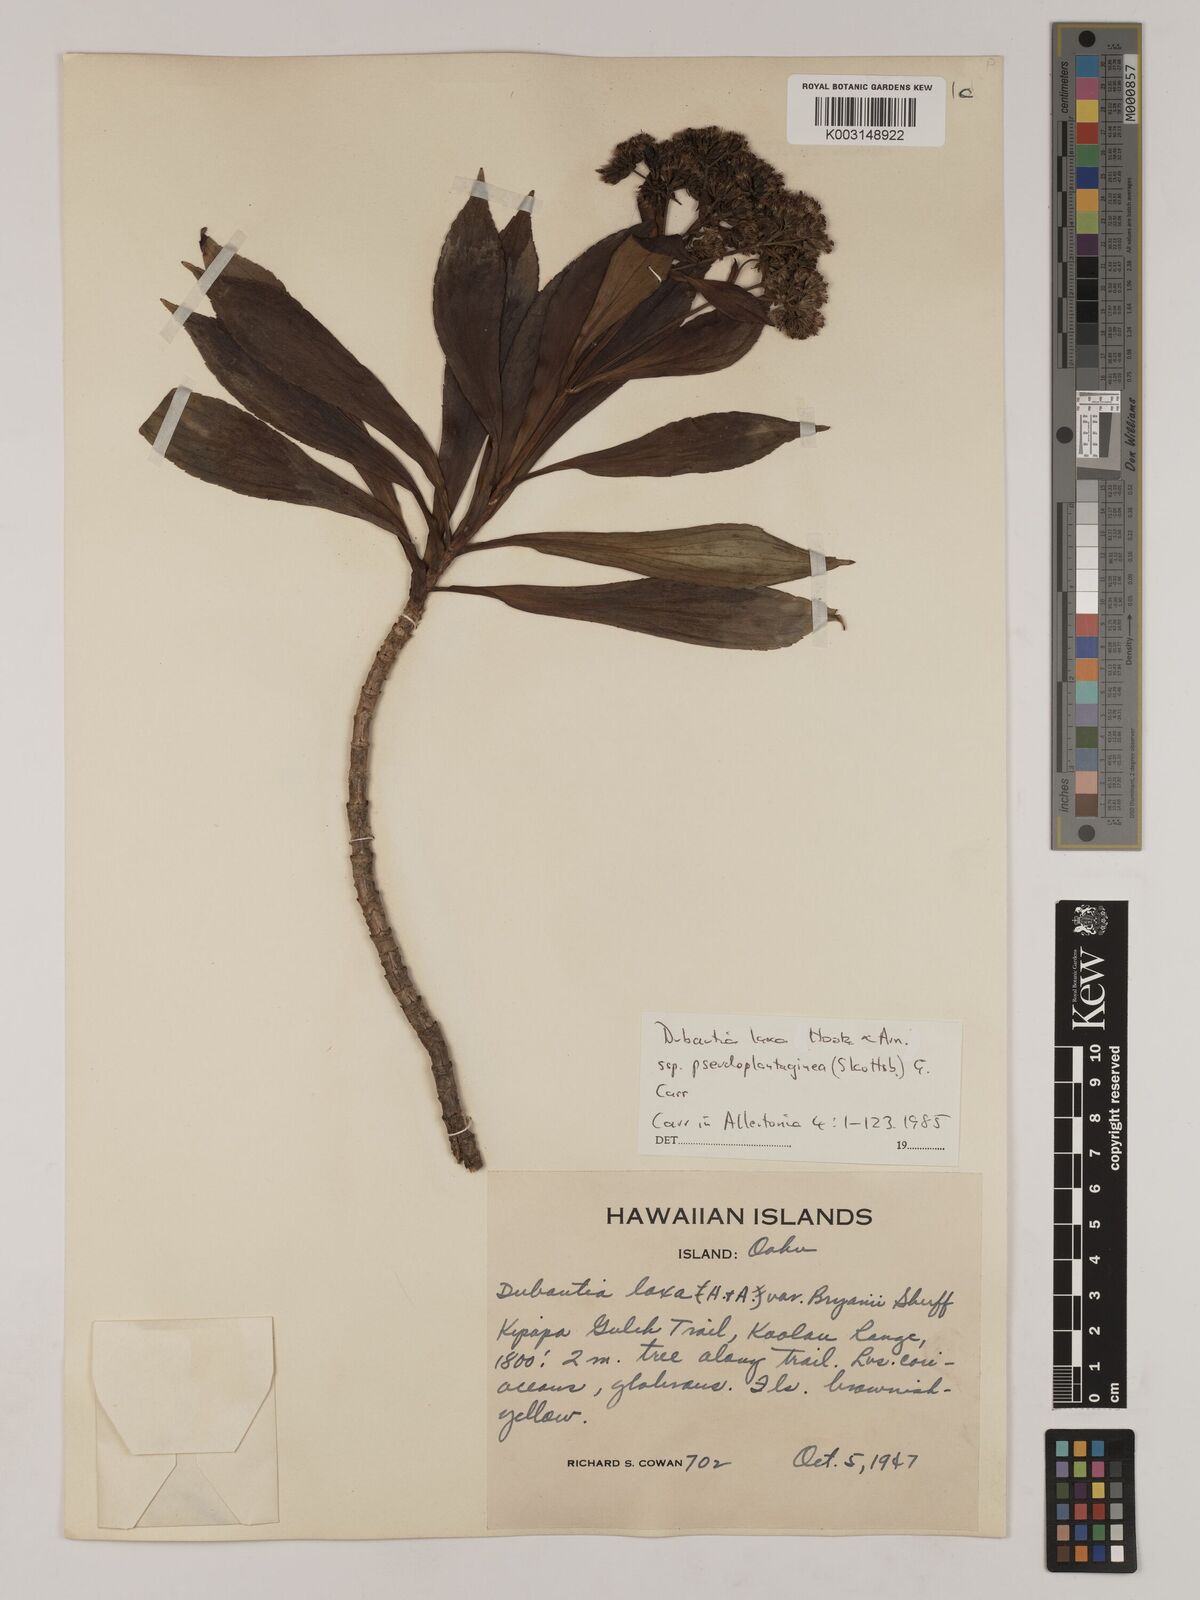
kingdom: Plantae
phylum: Tracheophyta
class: Magnoliopsida
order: Asterales
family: Asteraceae
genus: Dubautia
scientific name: Dubautia laxa
